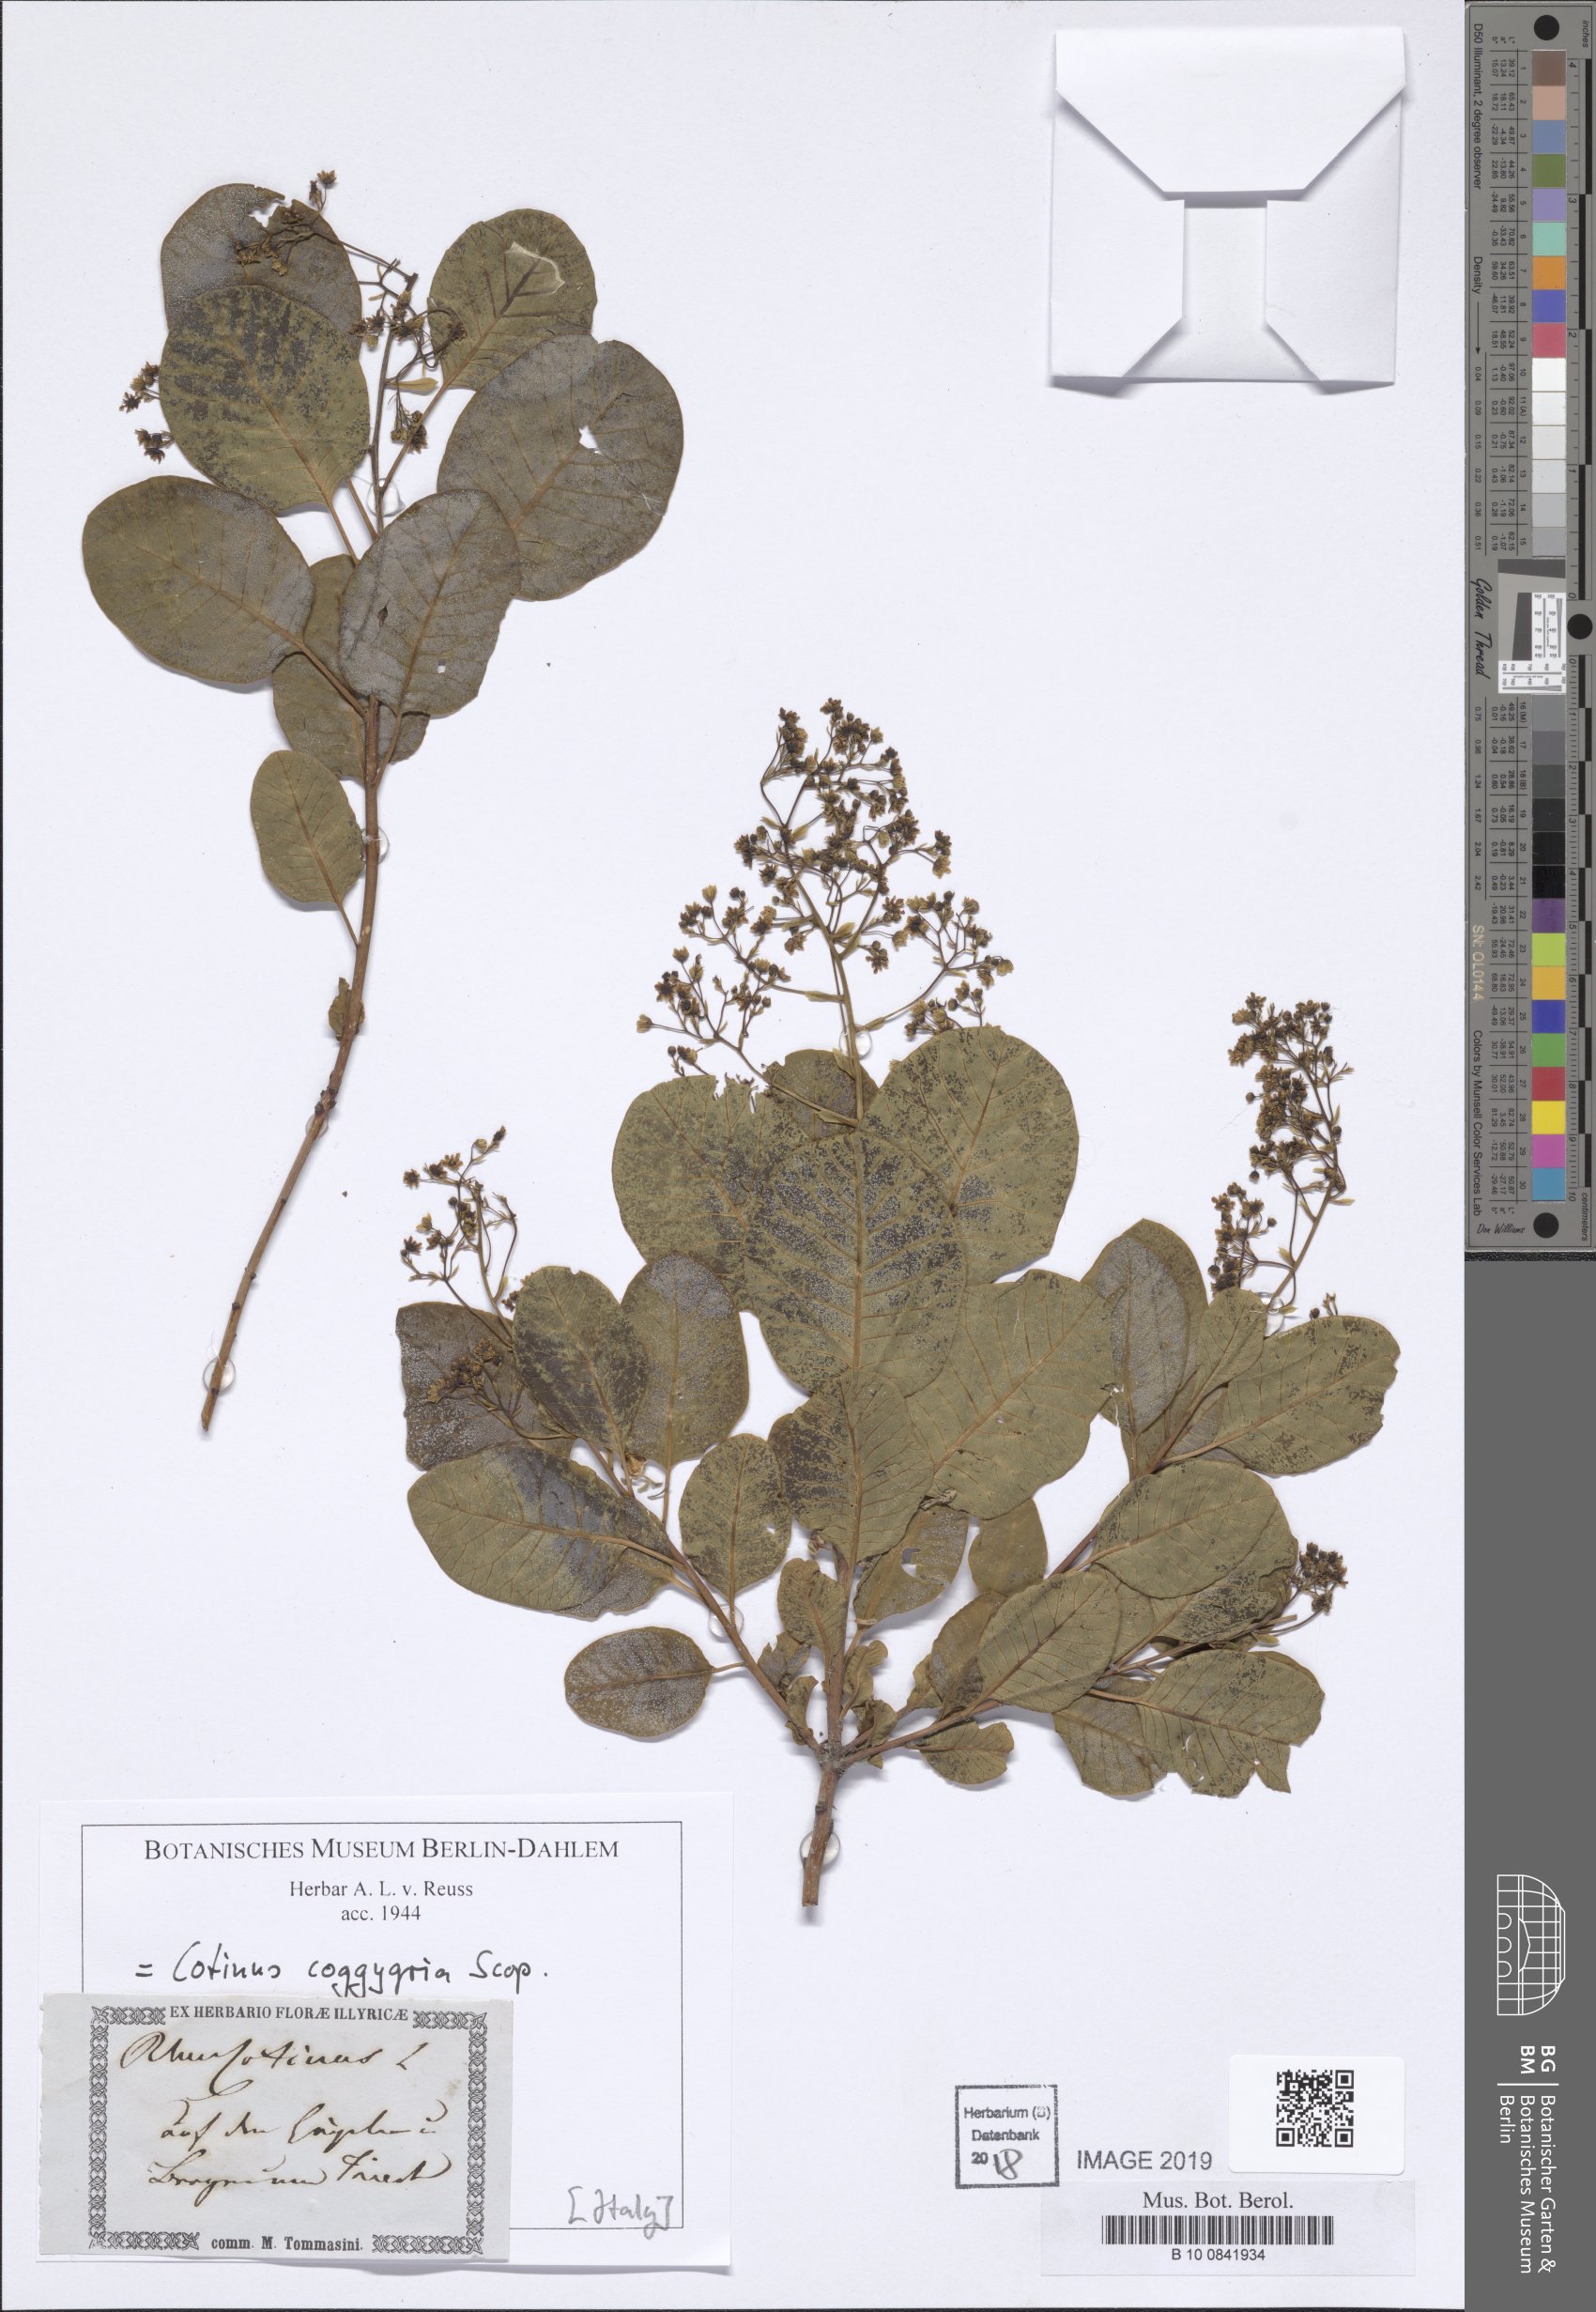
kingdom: Plantae
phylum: Tracheophyta
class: Magnoliopsida
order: Sapindales
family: Anacardiaceae
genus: Cotinus
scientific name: Cotinus coggygria
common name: Smoke-tree
